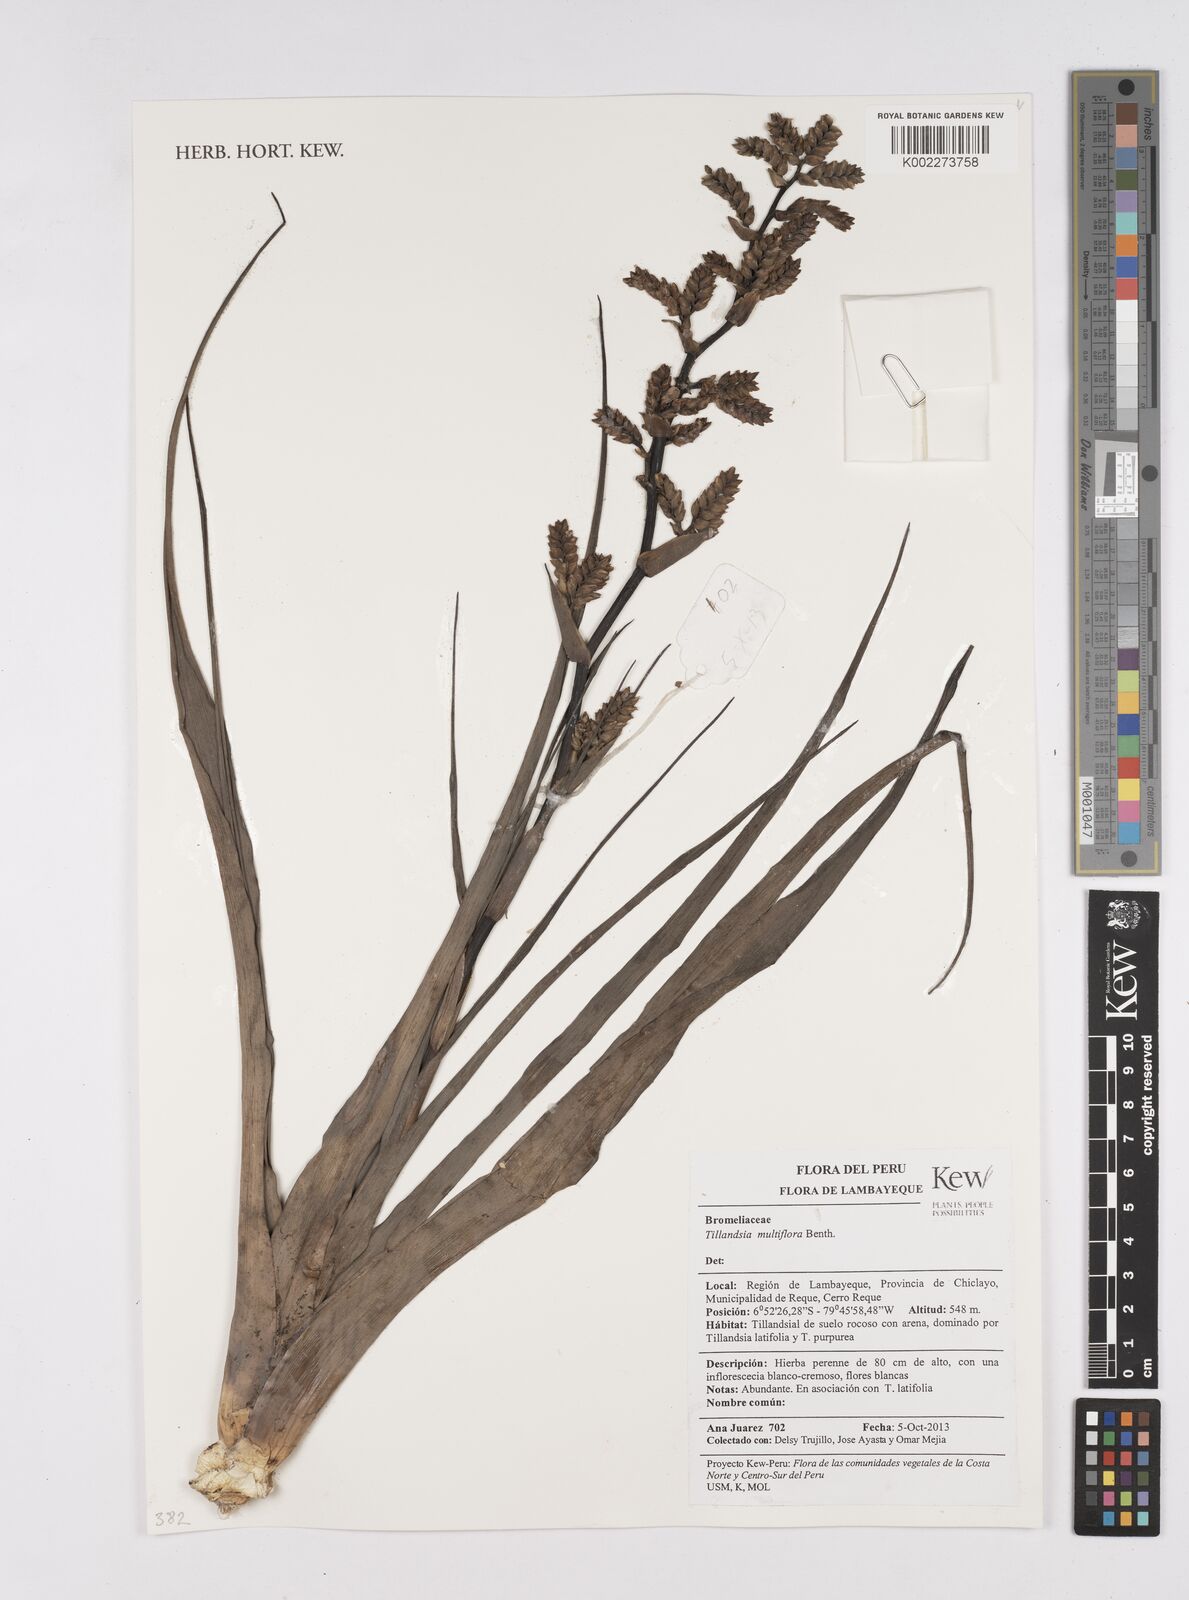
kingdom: Plantae
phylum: Tracheophyta
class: Liliopsida
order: Poales
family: Bromeliaceae
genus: Racinaea
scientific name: Racinaea multiflora
